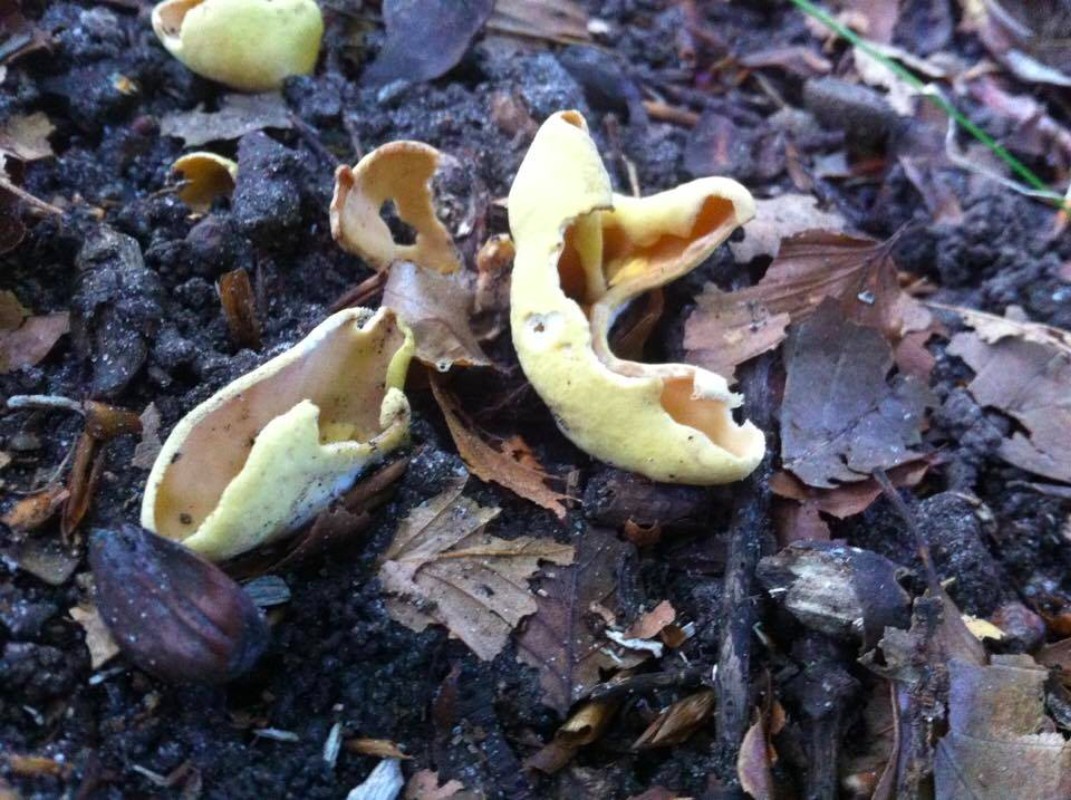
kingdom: Fungi
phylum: Ascomycota
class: Pezizomycetes
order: Pezizales
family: Otideaceae
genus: Otidea
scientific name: Otidea cantharella
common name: citrongul ørebæger
